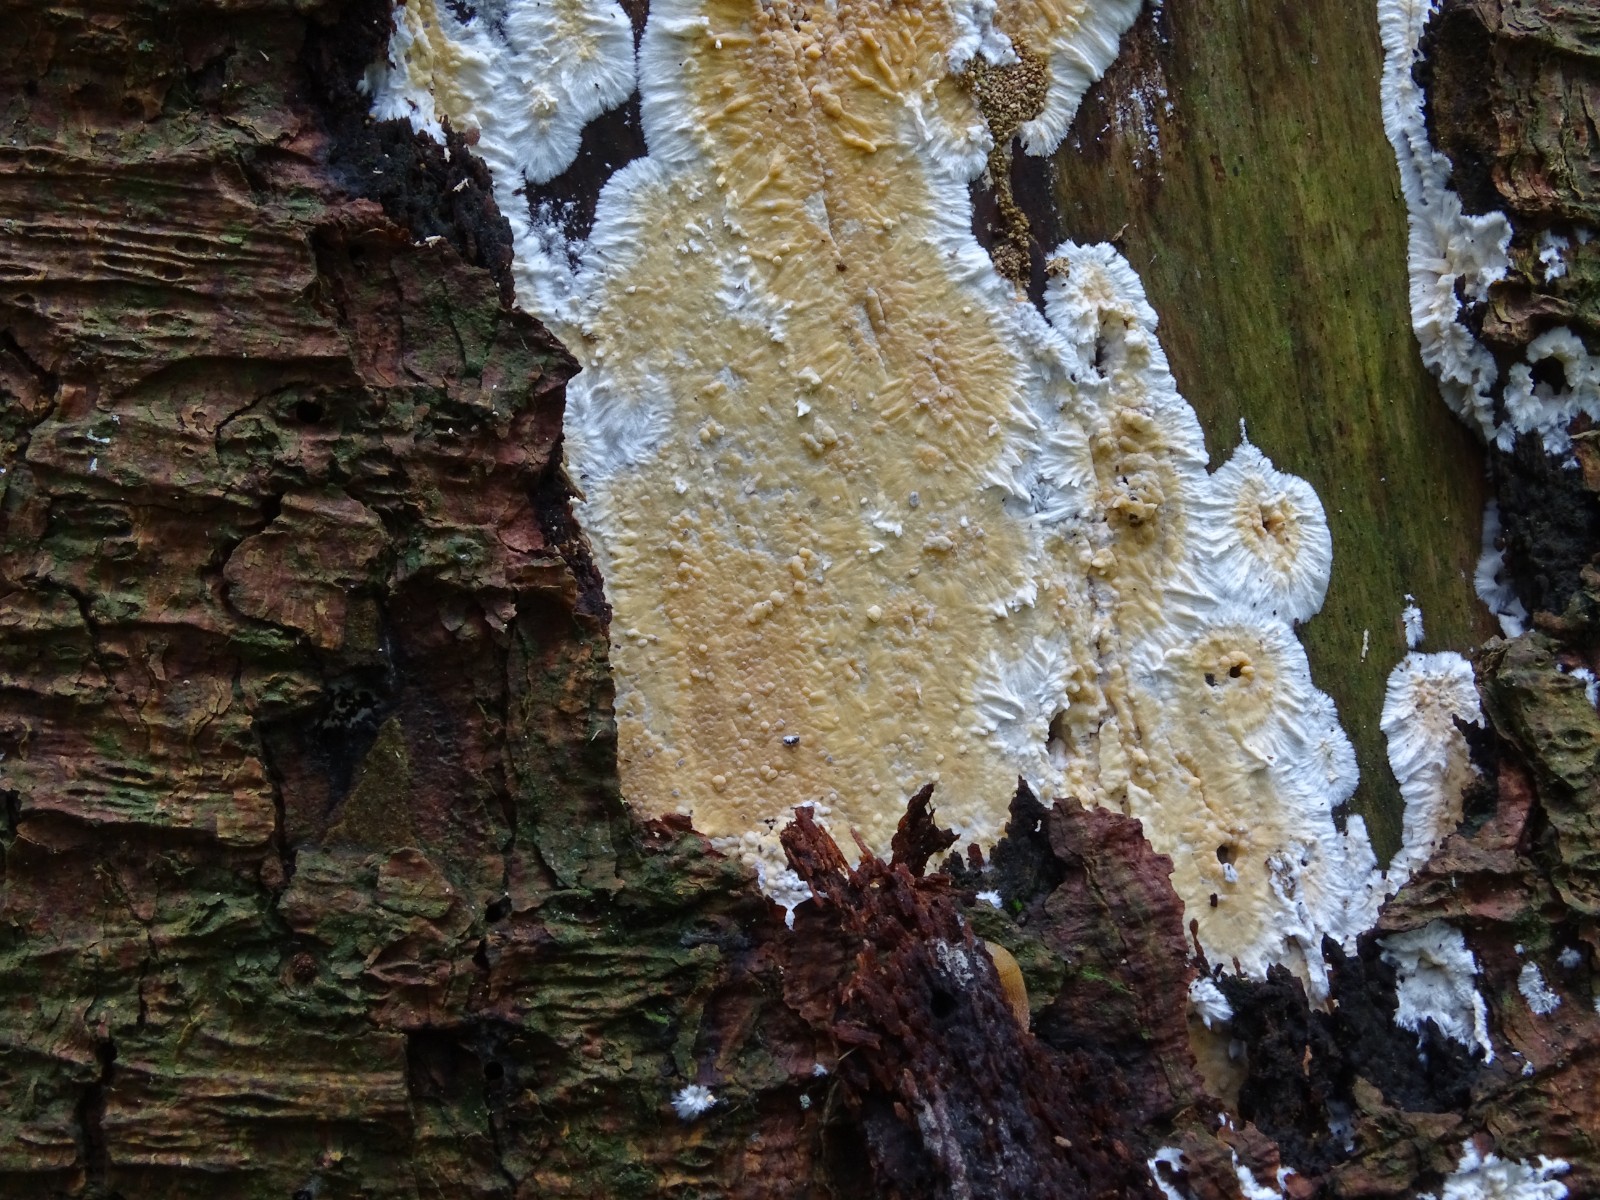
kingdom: Fungi
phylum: Basidiomycota
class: Agaricomycetes
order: Russulales
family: Peniophoraceae
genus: Gloiothele
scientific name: Gloiothele citrina
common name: citronskorpe
